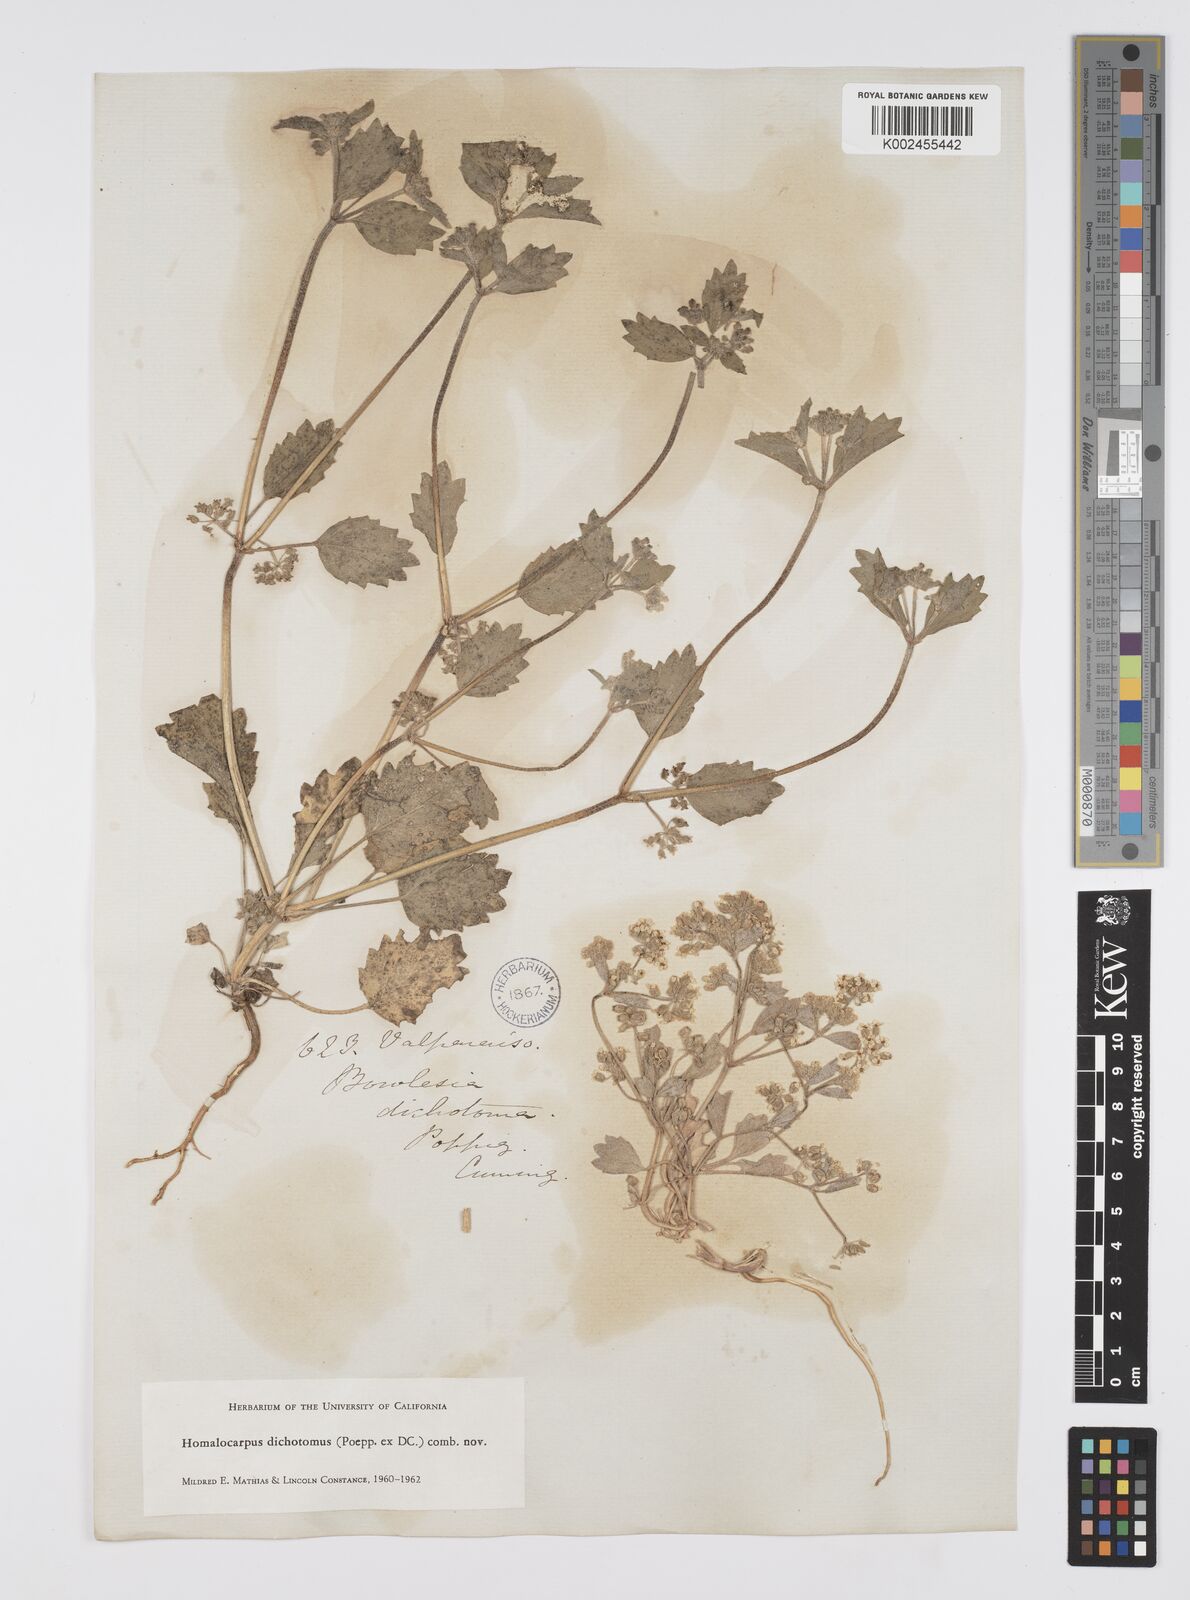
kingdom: Plantae
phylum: Tracheophyta
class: Magnoliopsida
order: Apiales
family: Apiaceae
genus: Homalocarpus
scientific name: Homalocarpus dichotomus
